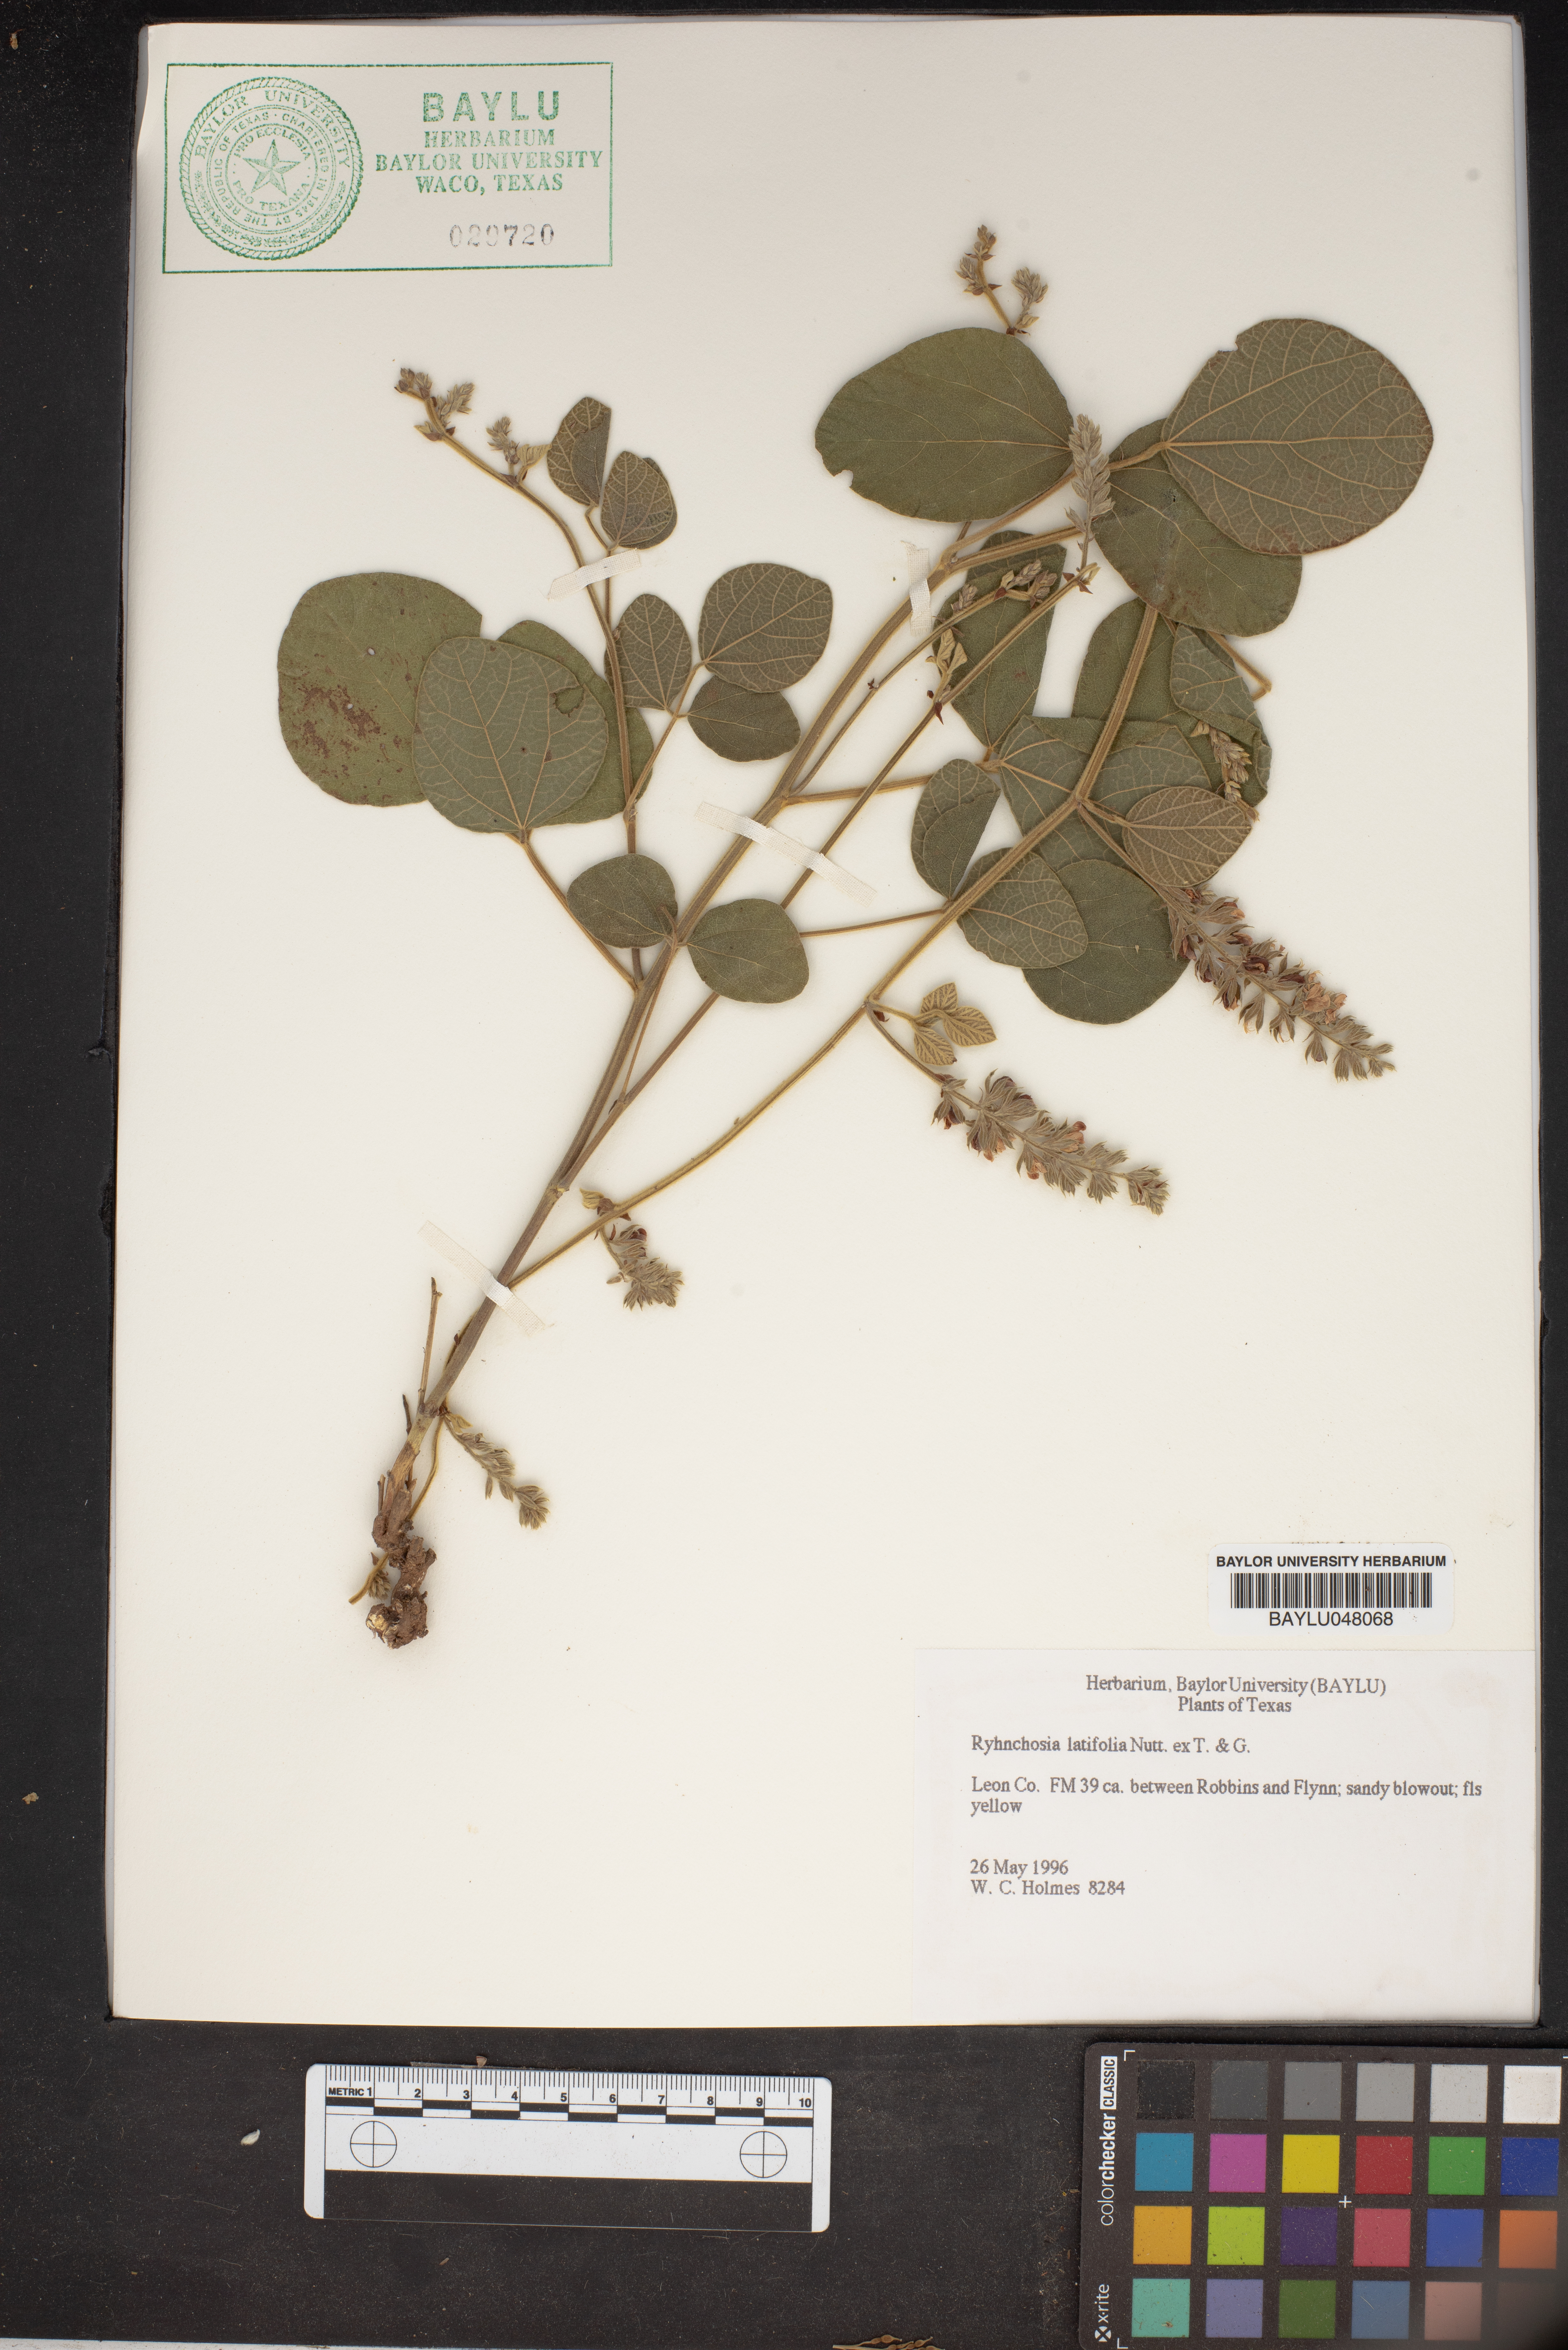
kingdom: Plantae
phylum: Tracheophyta
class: Magnoliopsida
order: Fabales
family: Fabaceae
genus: Rhynchosia
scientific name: Rhynchosia latifolia
